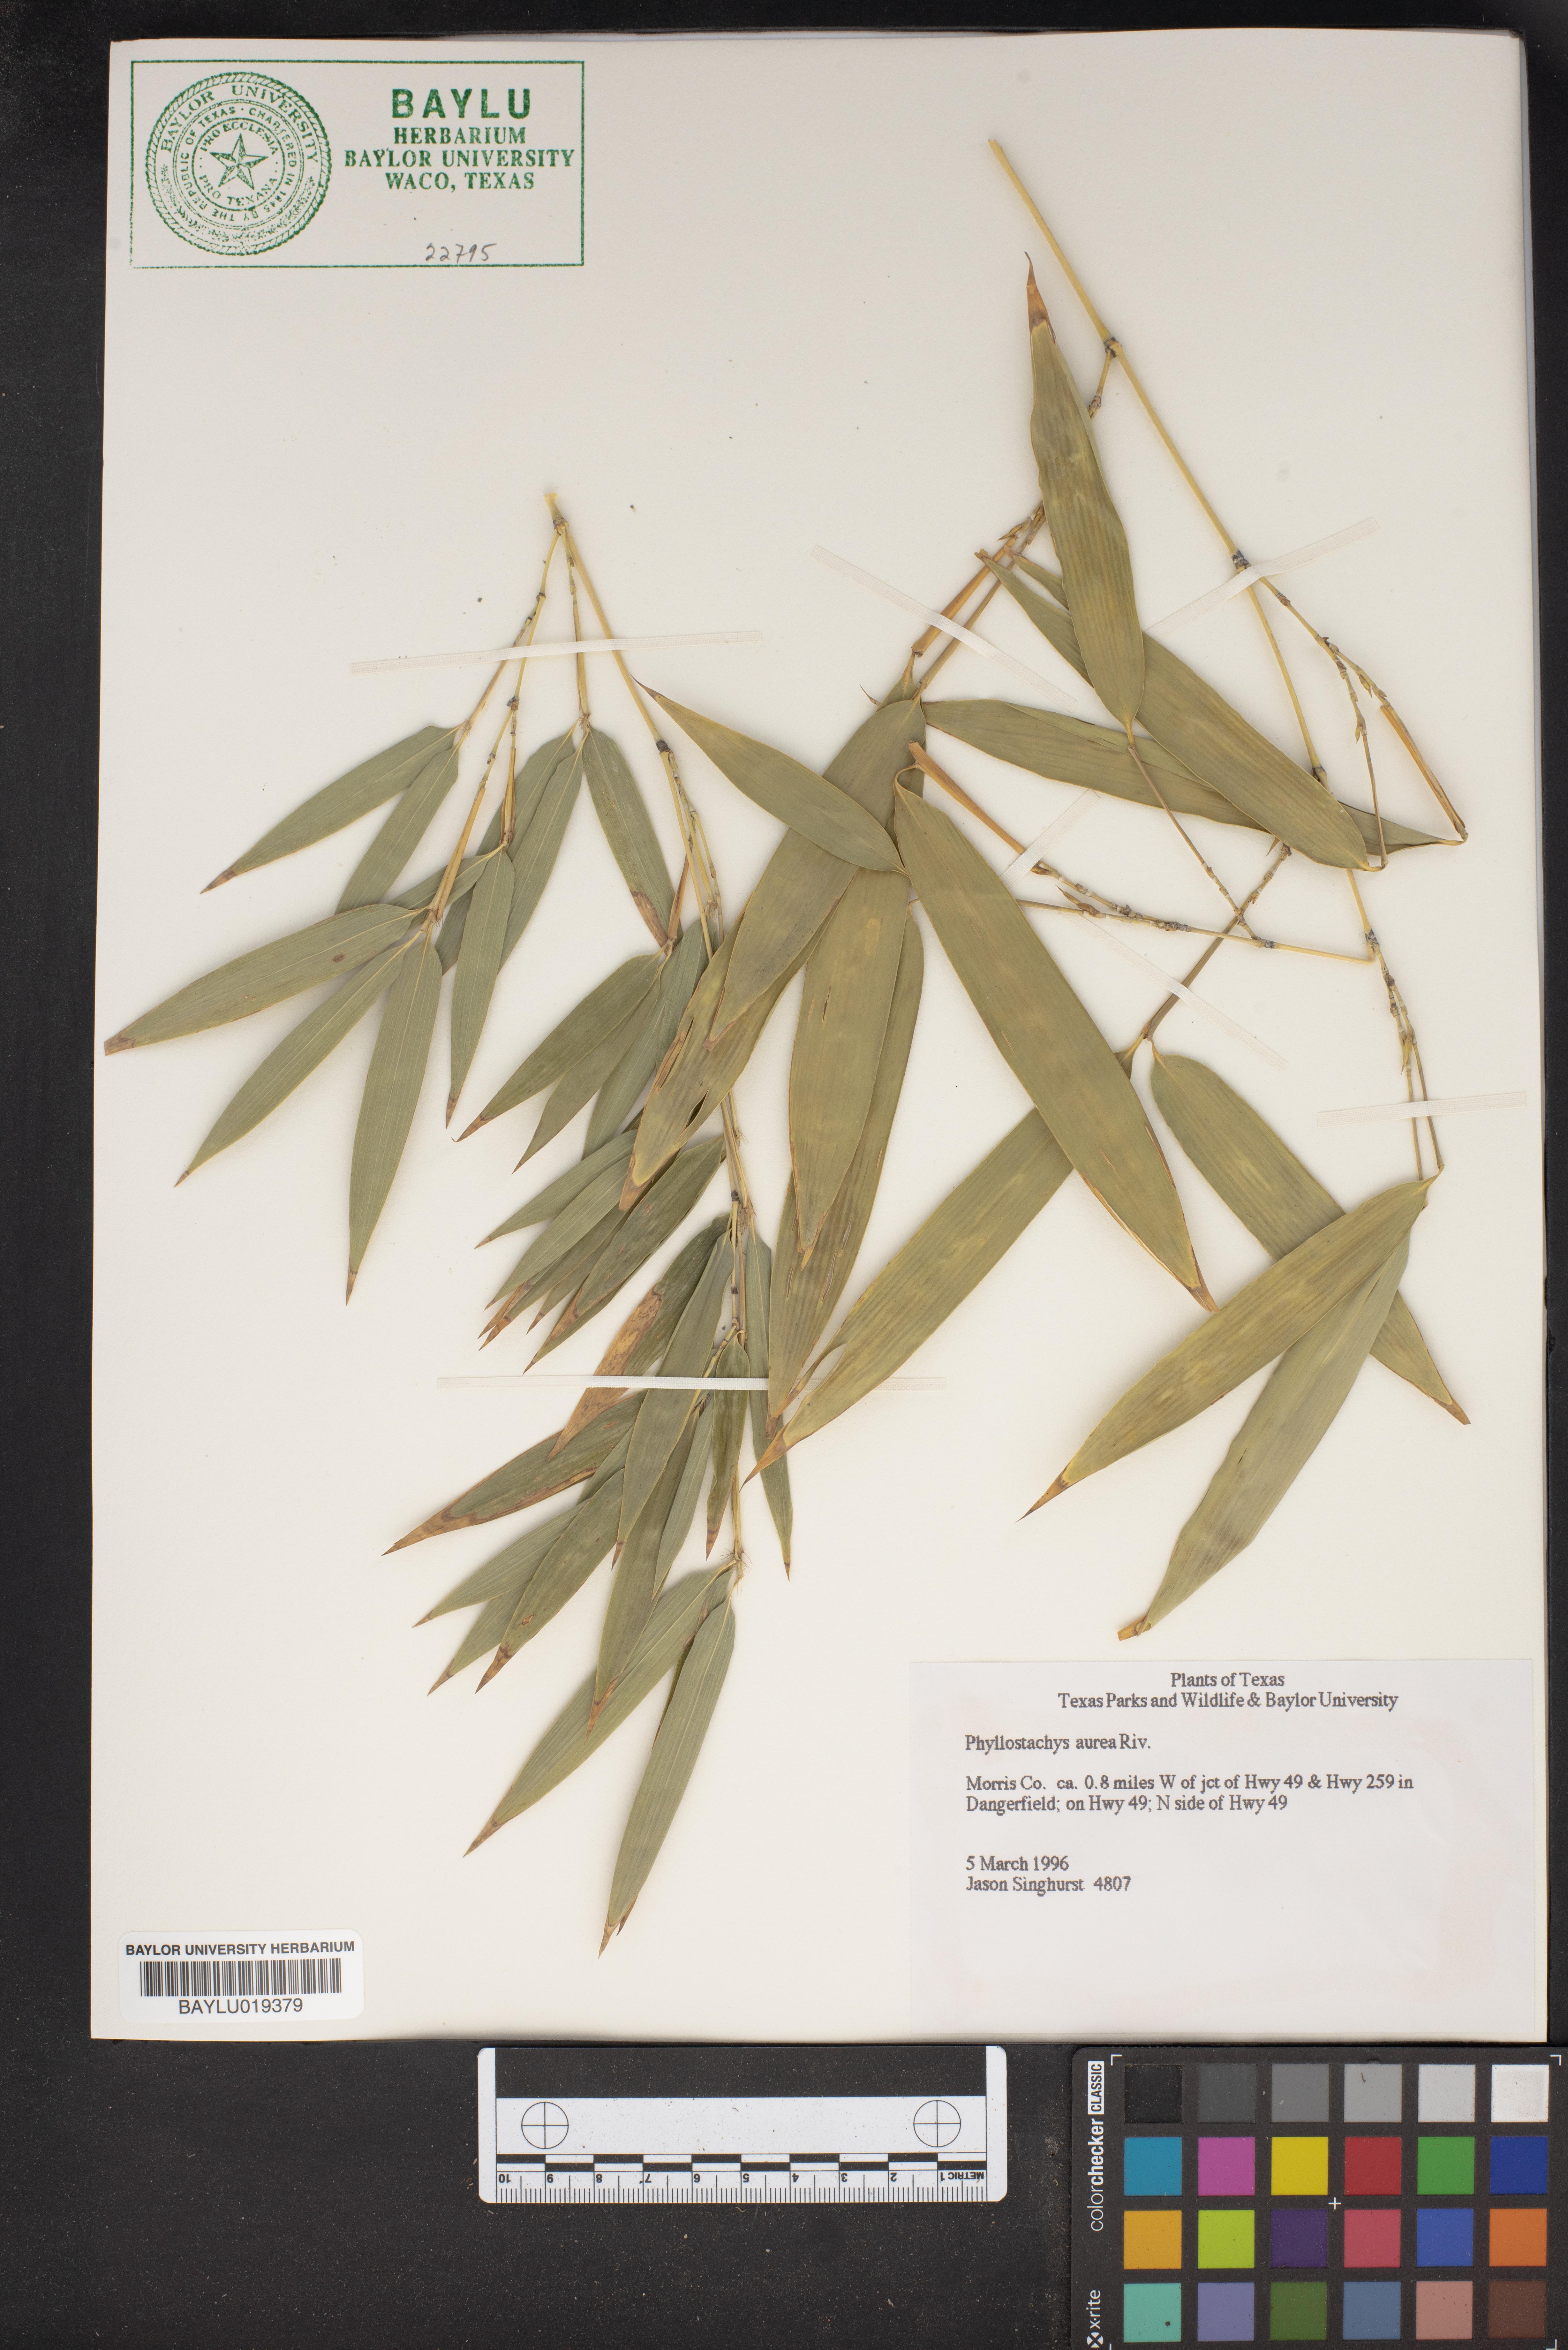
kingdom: Plantae
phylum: Tracheophyta
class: Liliopsida
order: Poales
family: Poaceae
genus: Phyllostachys
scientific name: Phyllostachys aurea
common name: Golden bamboo
